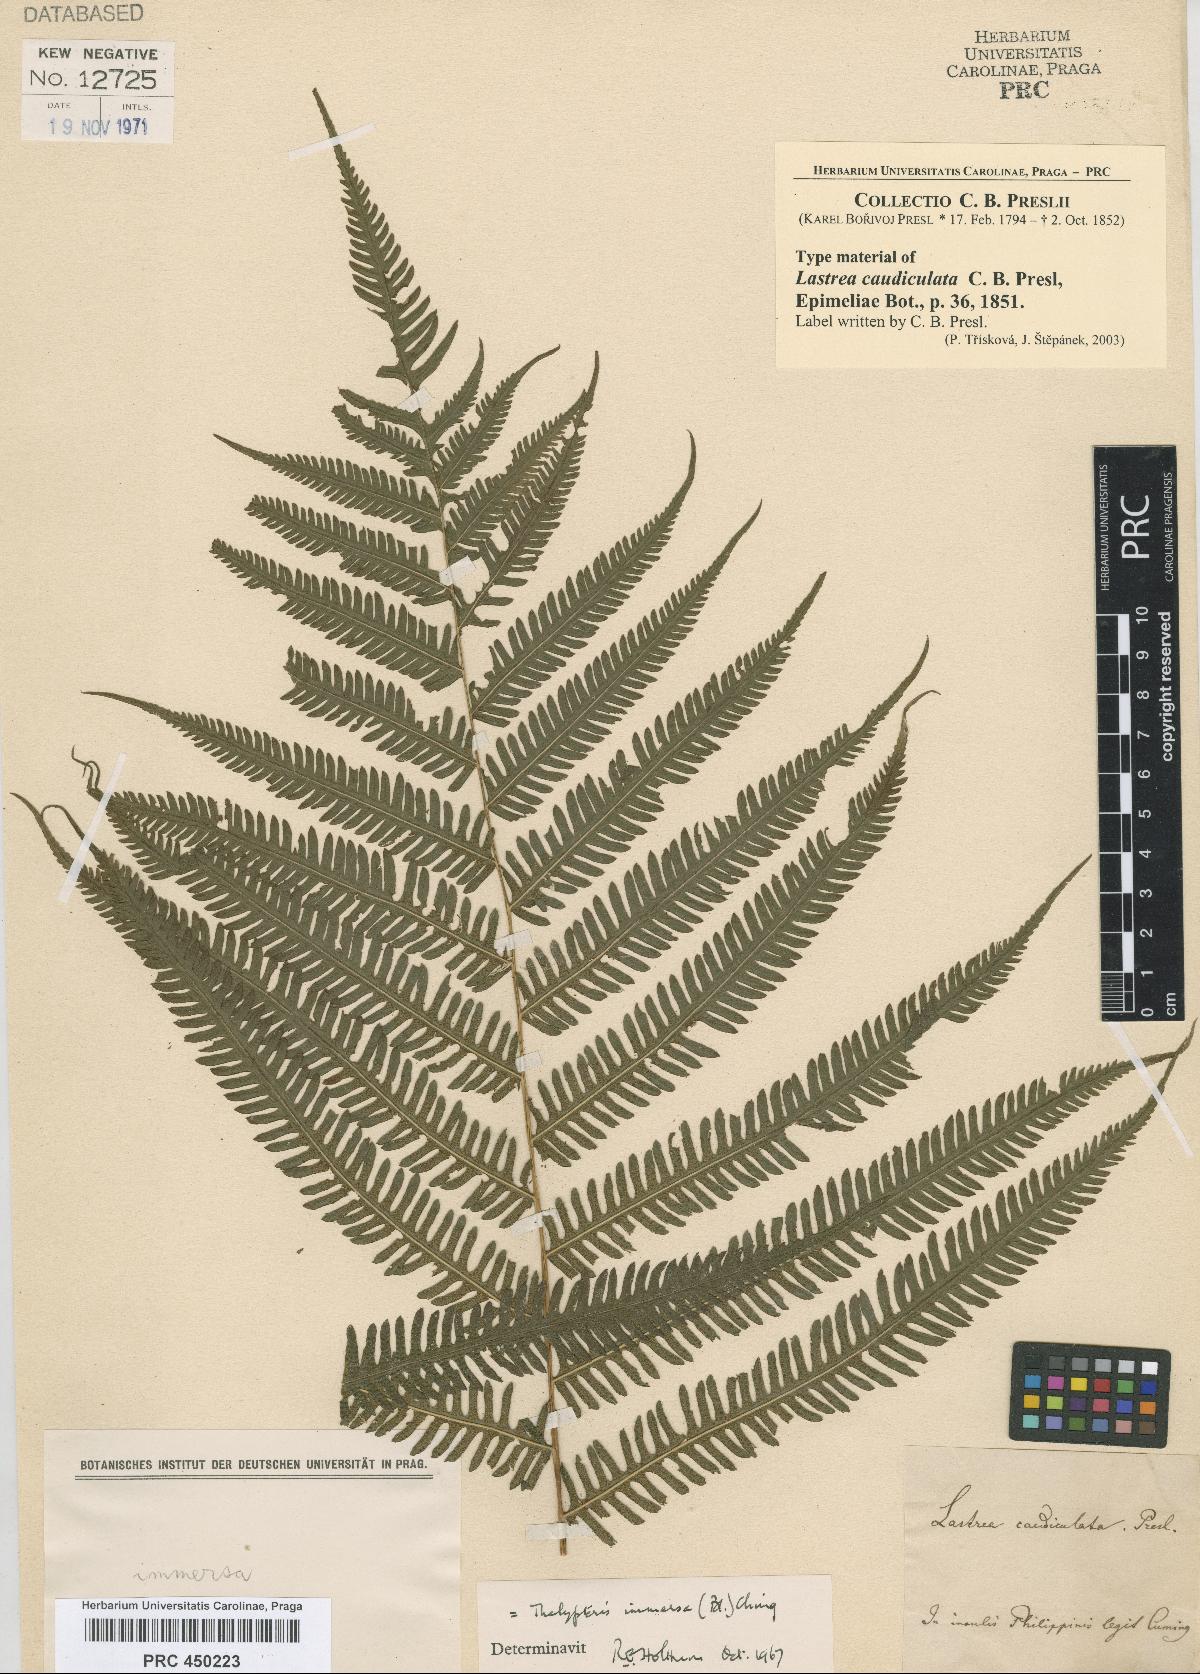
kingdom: Plantae
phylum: Tracheophyta
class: Polypodiopsida
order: Polypodiales
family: Thelypteridaceae
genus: Amblovenatum
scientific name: Amblovenatum immersum
